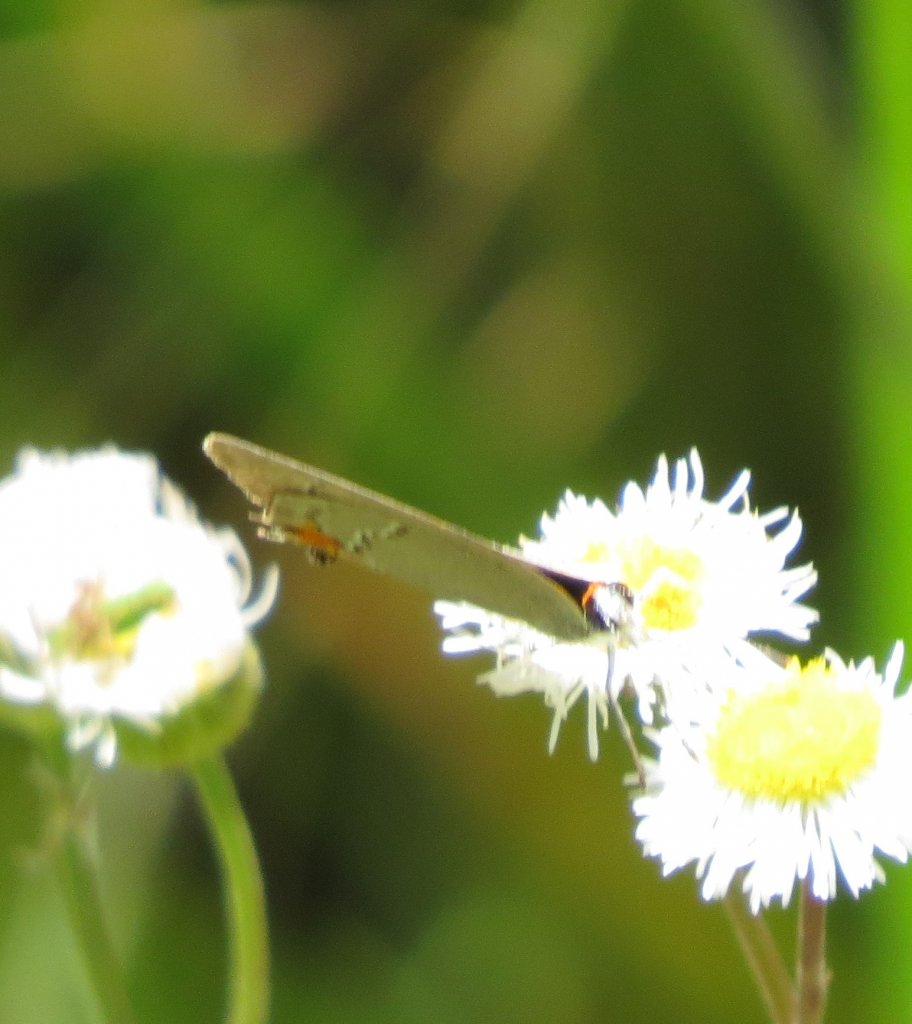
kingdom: Animalia
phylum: Arthropoda
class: Insecta
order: Lepidoptera
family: Lycaenidae
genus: Strymon
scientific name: Strymon melinus
